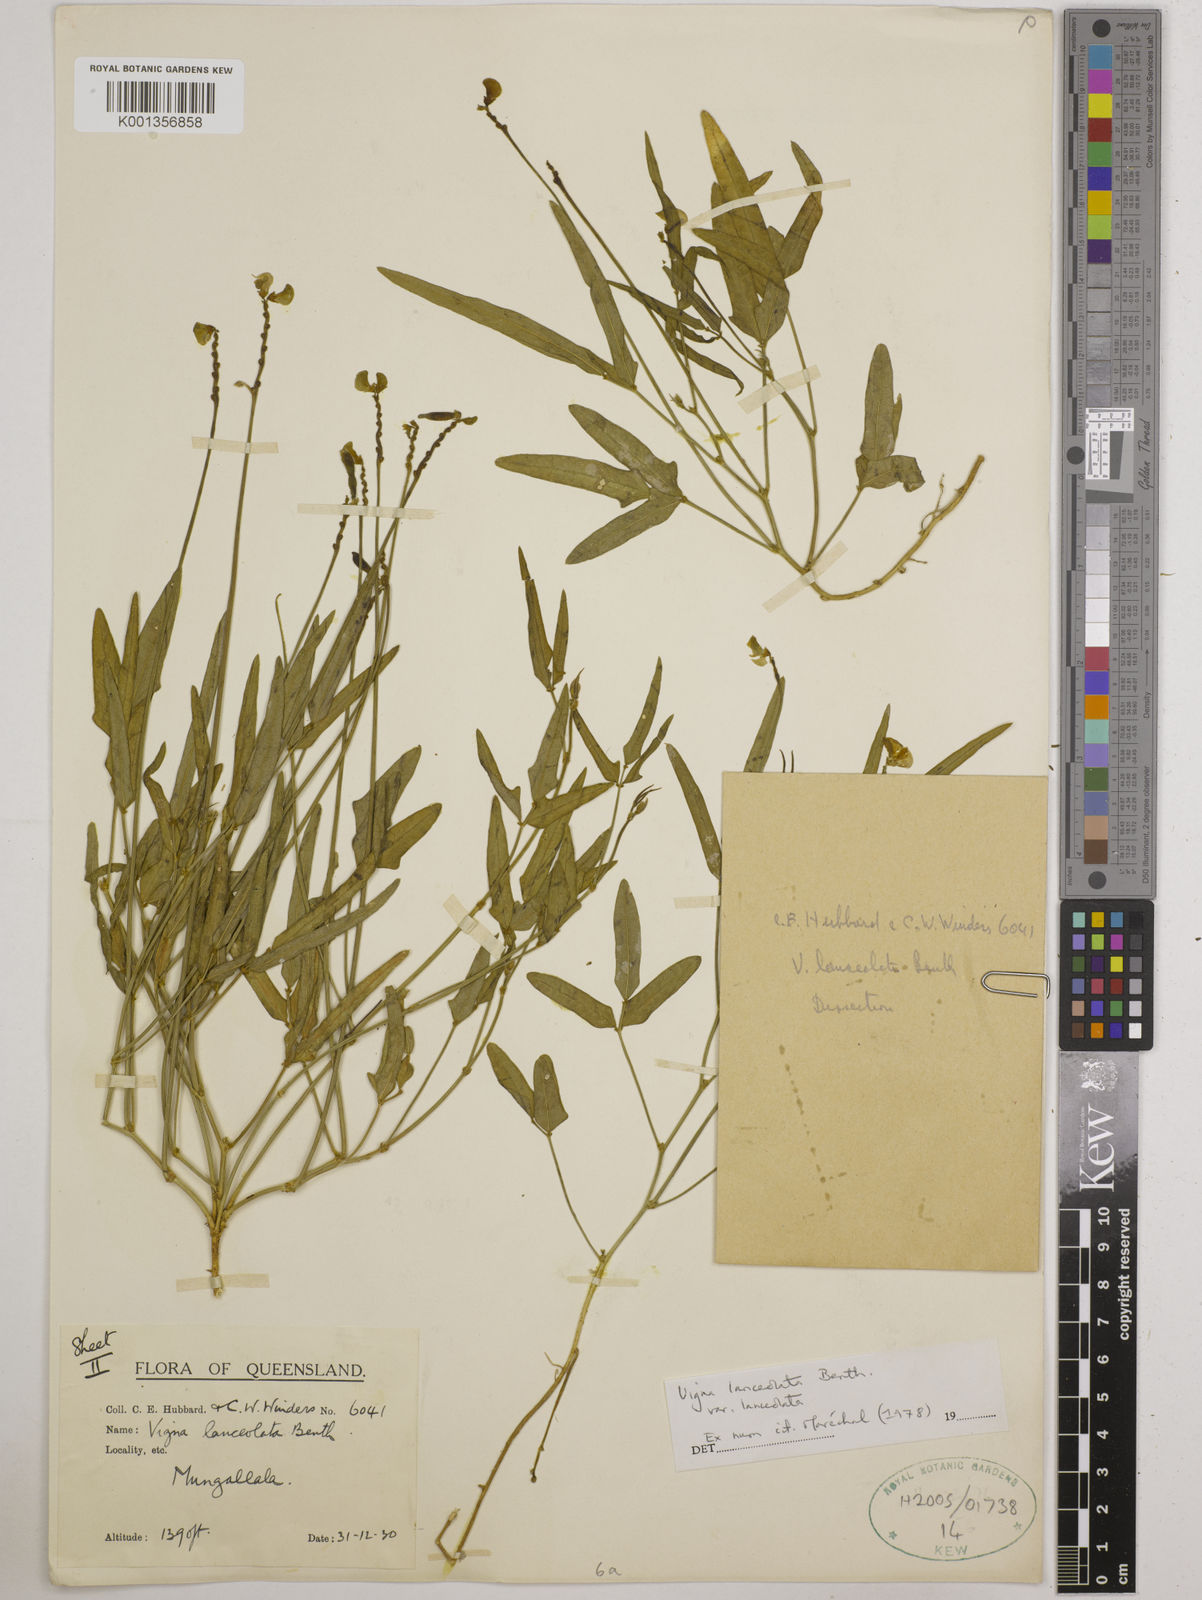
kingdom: Plantae
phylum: Tracheophyta
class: Magnoliopsida
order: Fabales
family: Fabaceae
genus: Vigna
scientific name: Vigna lanceolata
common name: Maloga-bean
